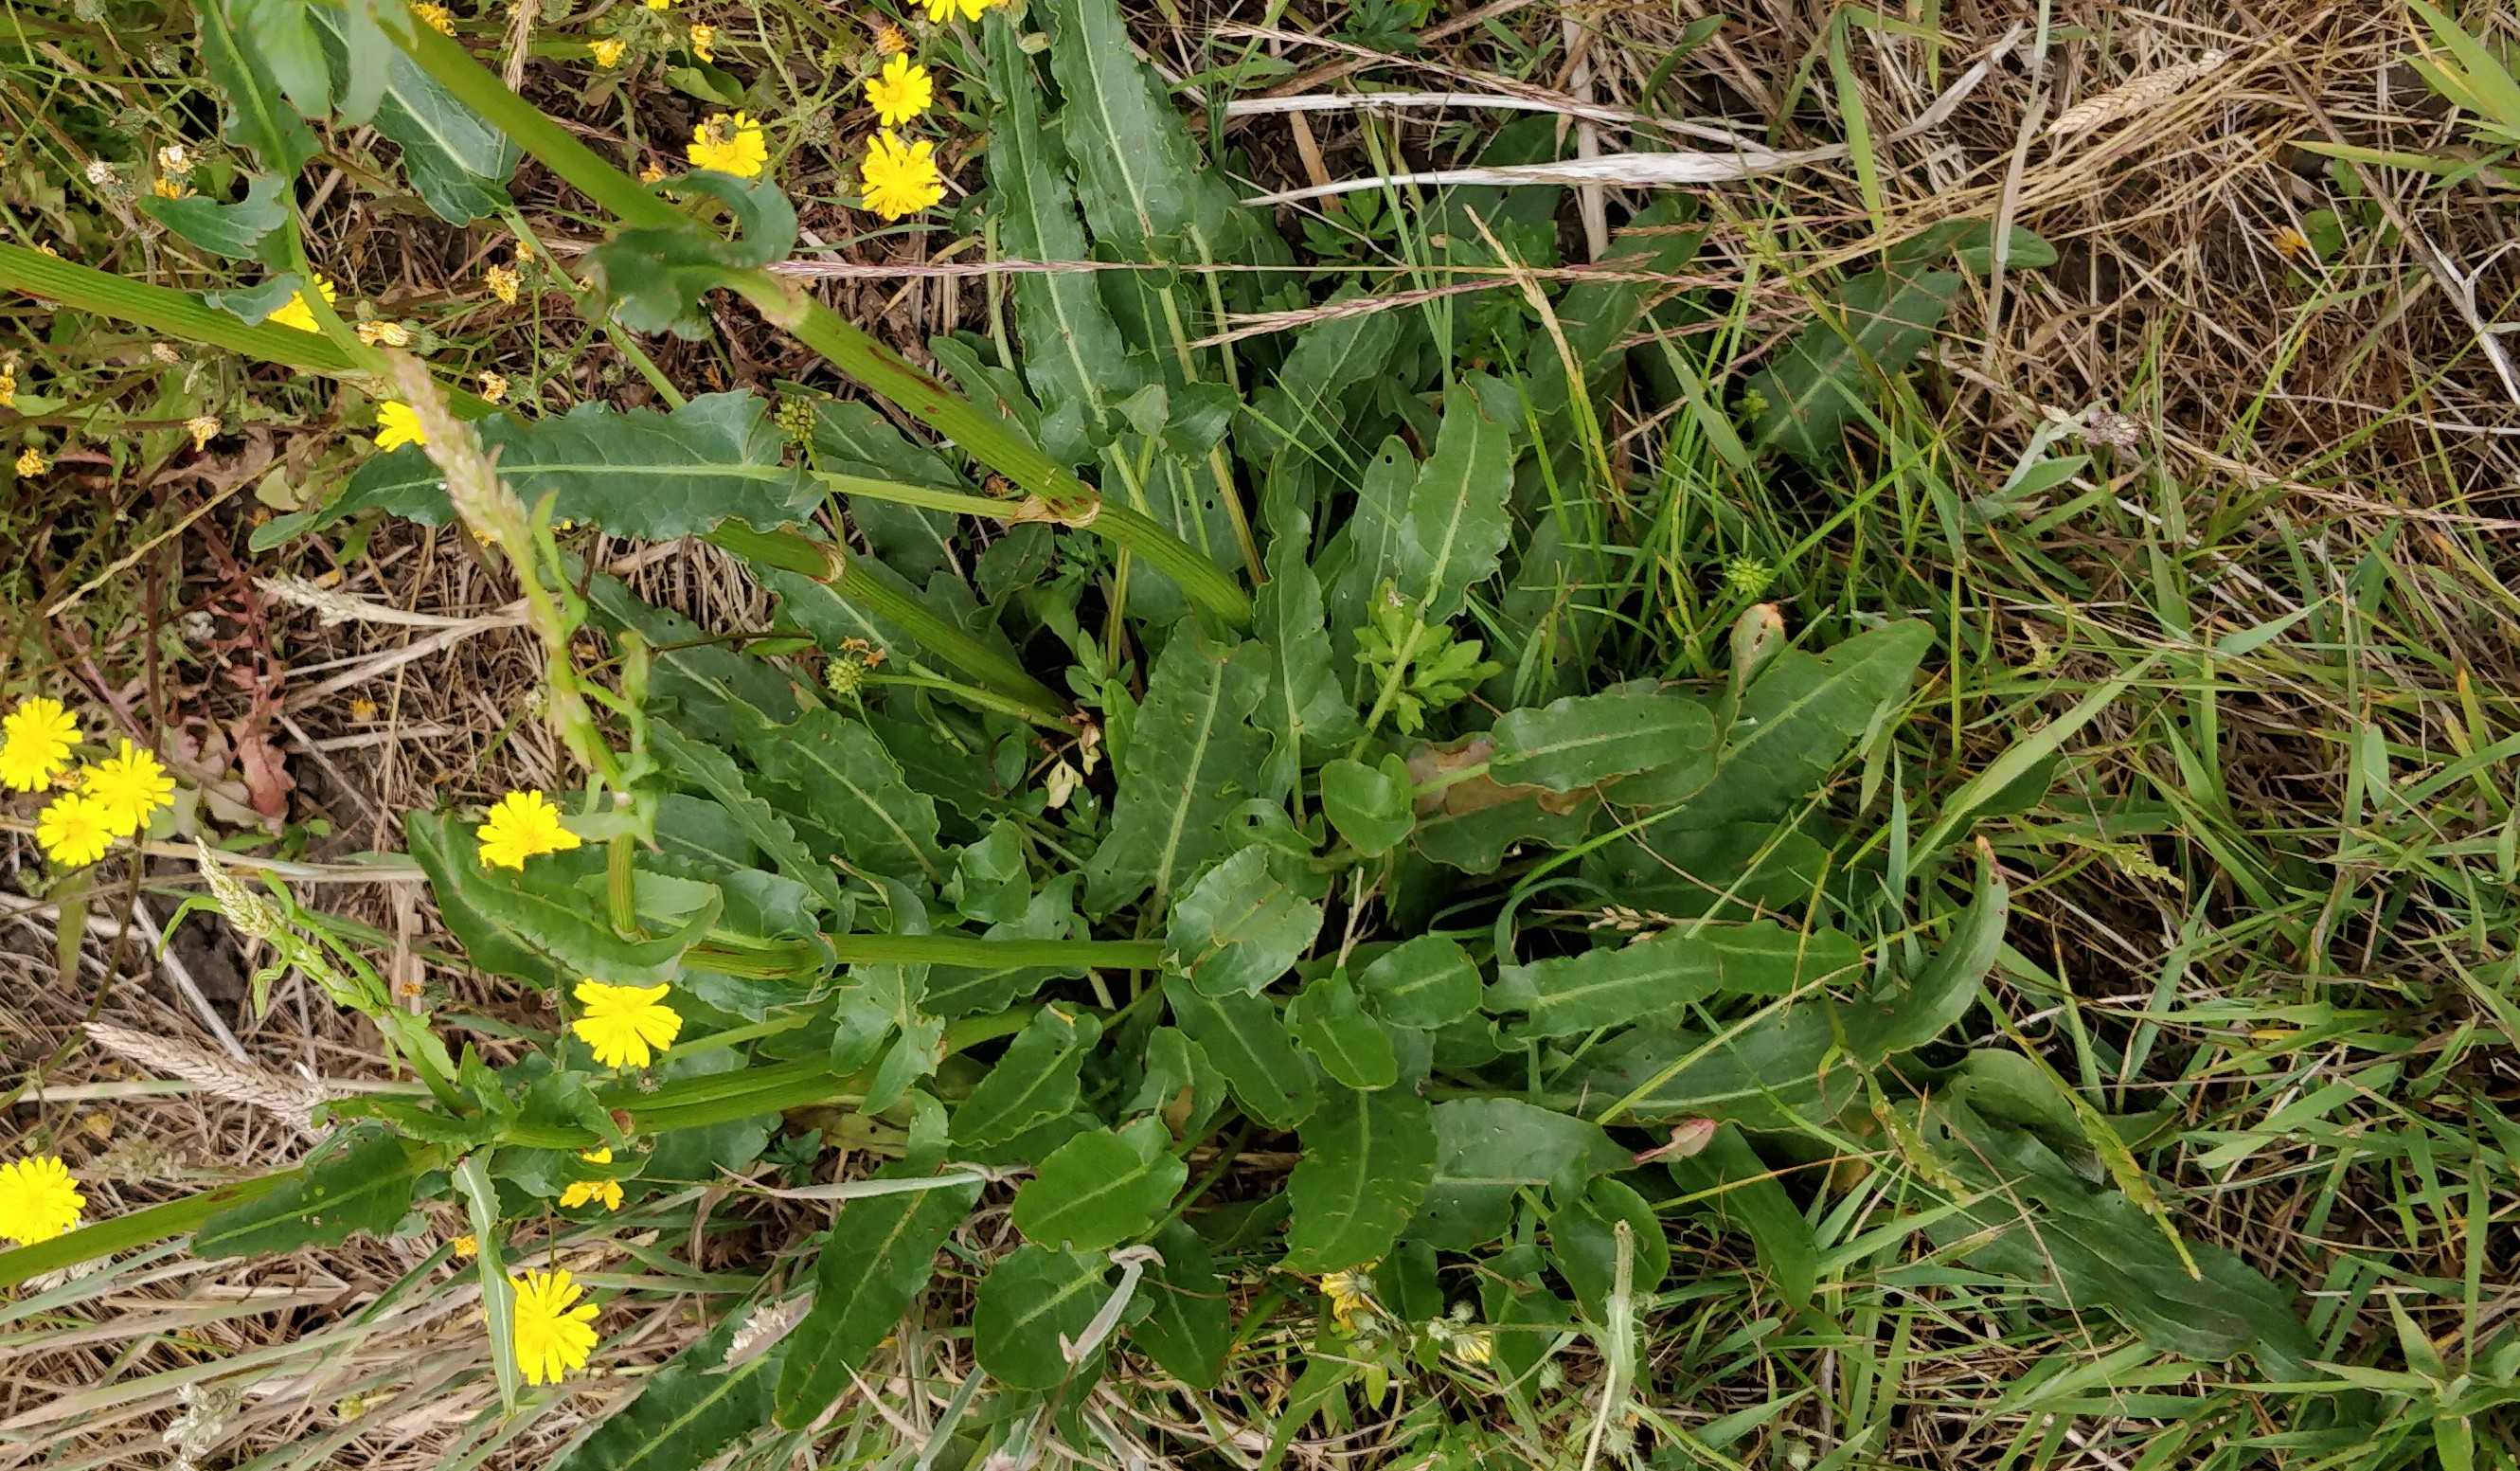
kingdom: Plantae
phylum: Tracheophyta
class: Magnoliopsida
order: Caryophyllales
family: Polygonaceae
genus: Rumex
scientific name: Rumex thyrsiflorus
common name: Dusk-syre
